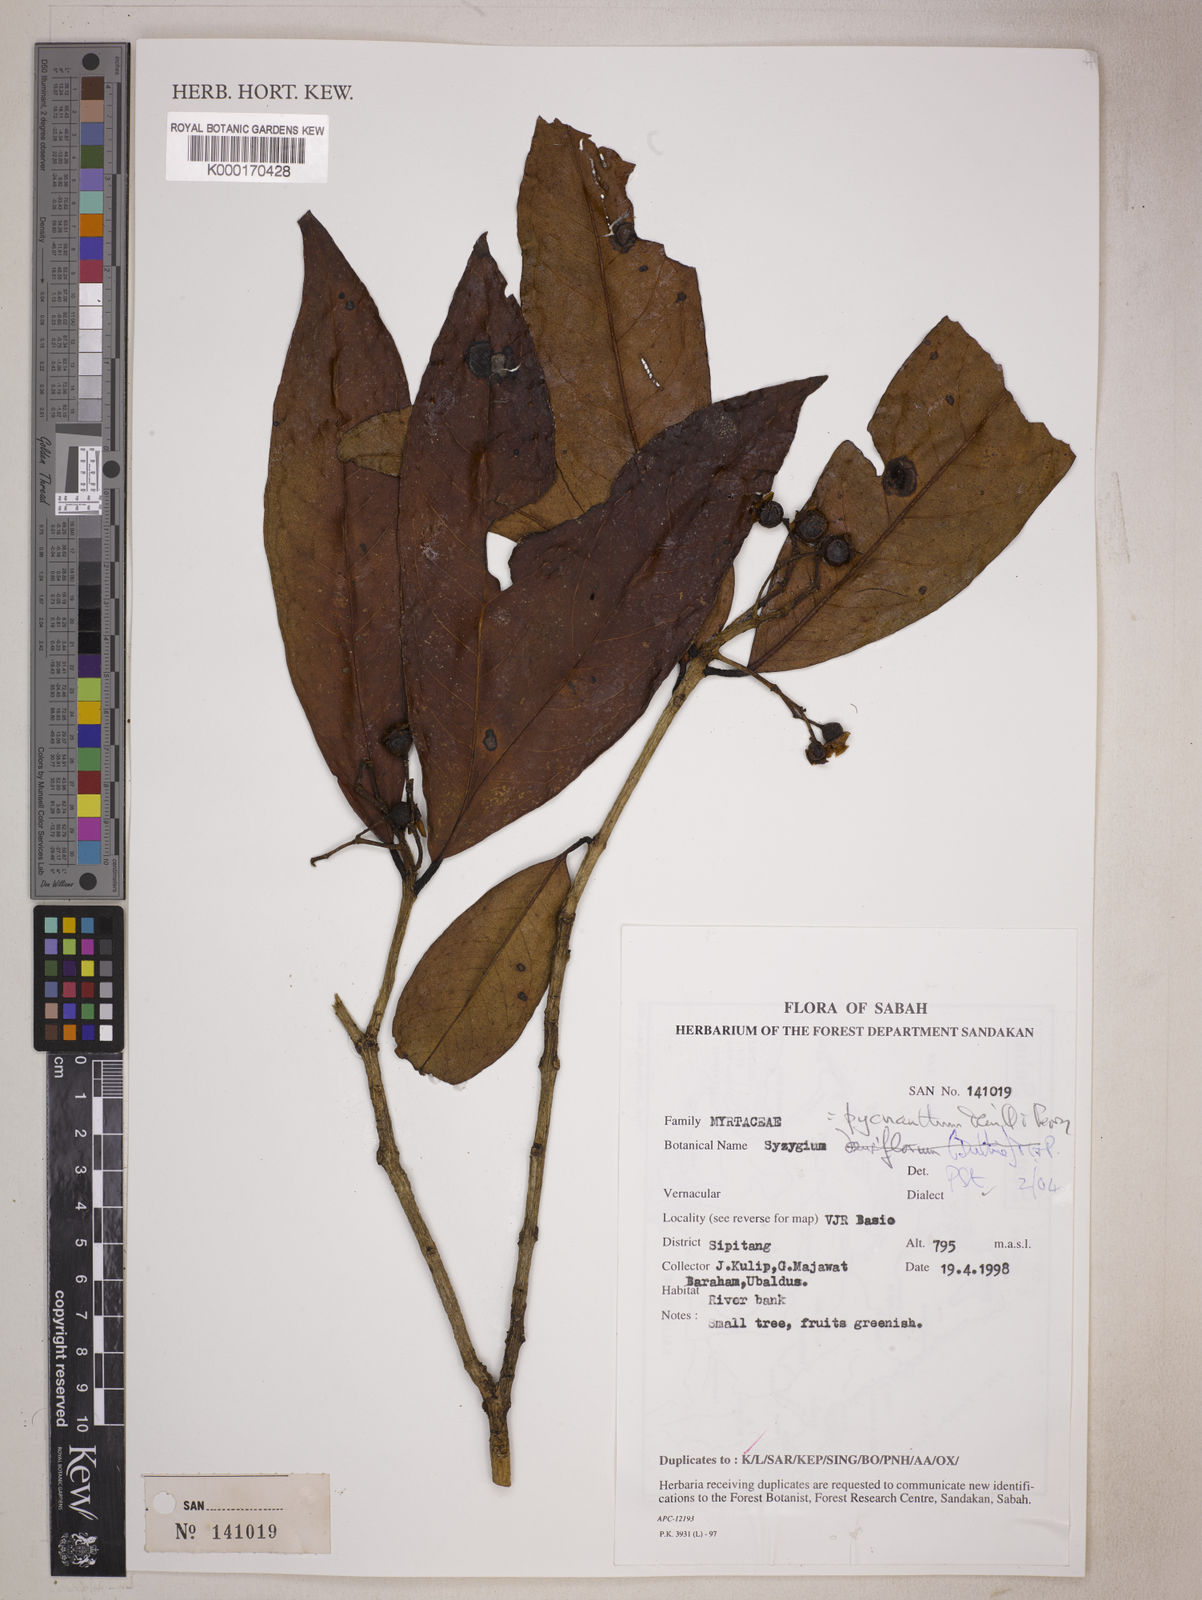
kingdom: Plantae
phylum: Tracheophyta
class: Magnoliopsida
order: Myrtales
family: Myrtaceae
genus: Syzygium
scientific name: Syzygium pycnanthum
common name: Wild rose
